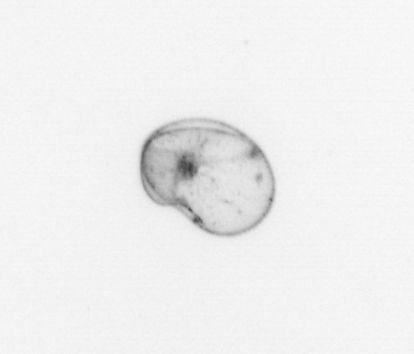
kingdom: Chromista
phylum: Myzozoa
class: Dinophyceae
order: Noctilucales
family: Noctilucaceae
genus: Noctiluca
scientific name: Noctiluca scintillans
